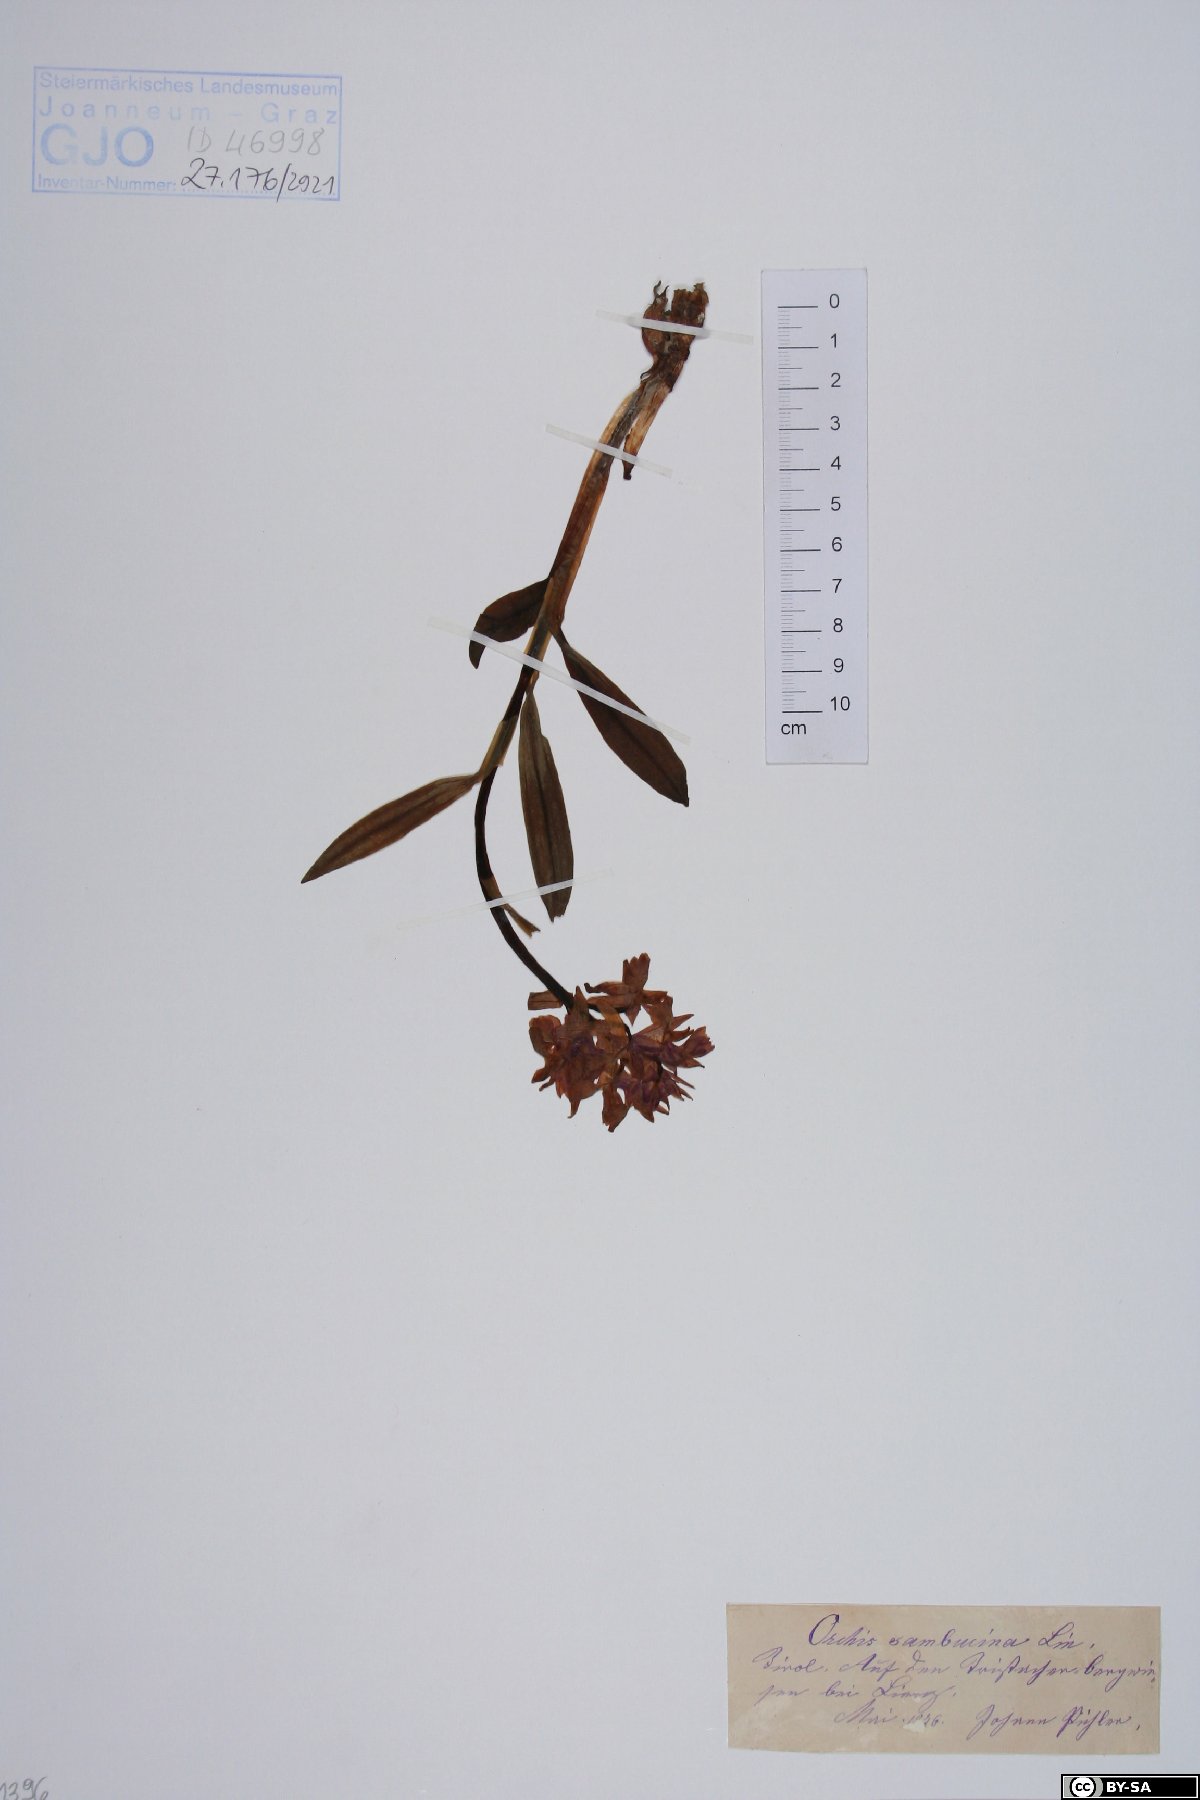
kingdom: Plantae
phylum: Tracheophyta
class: Liliopsida
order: Asparagales
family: Orchidaceae
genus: Dactylorhiza
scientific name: Dactylorhiza sambucina
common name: Elder-flowered orchid
